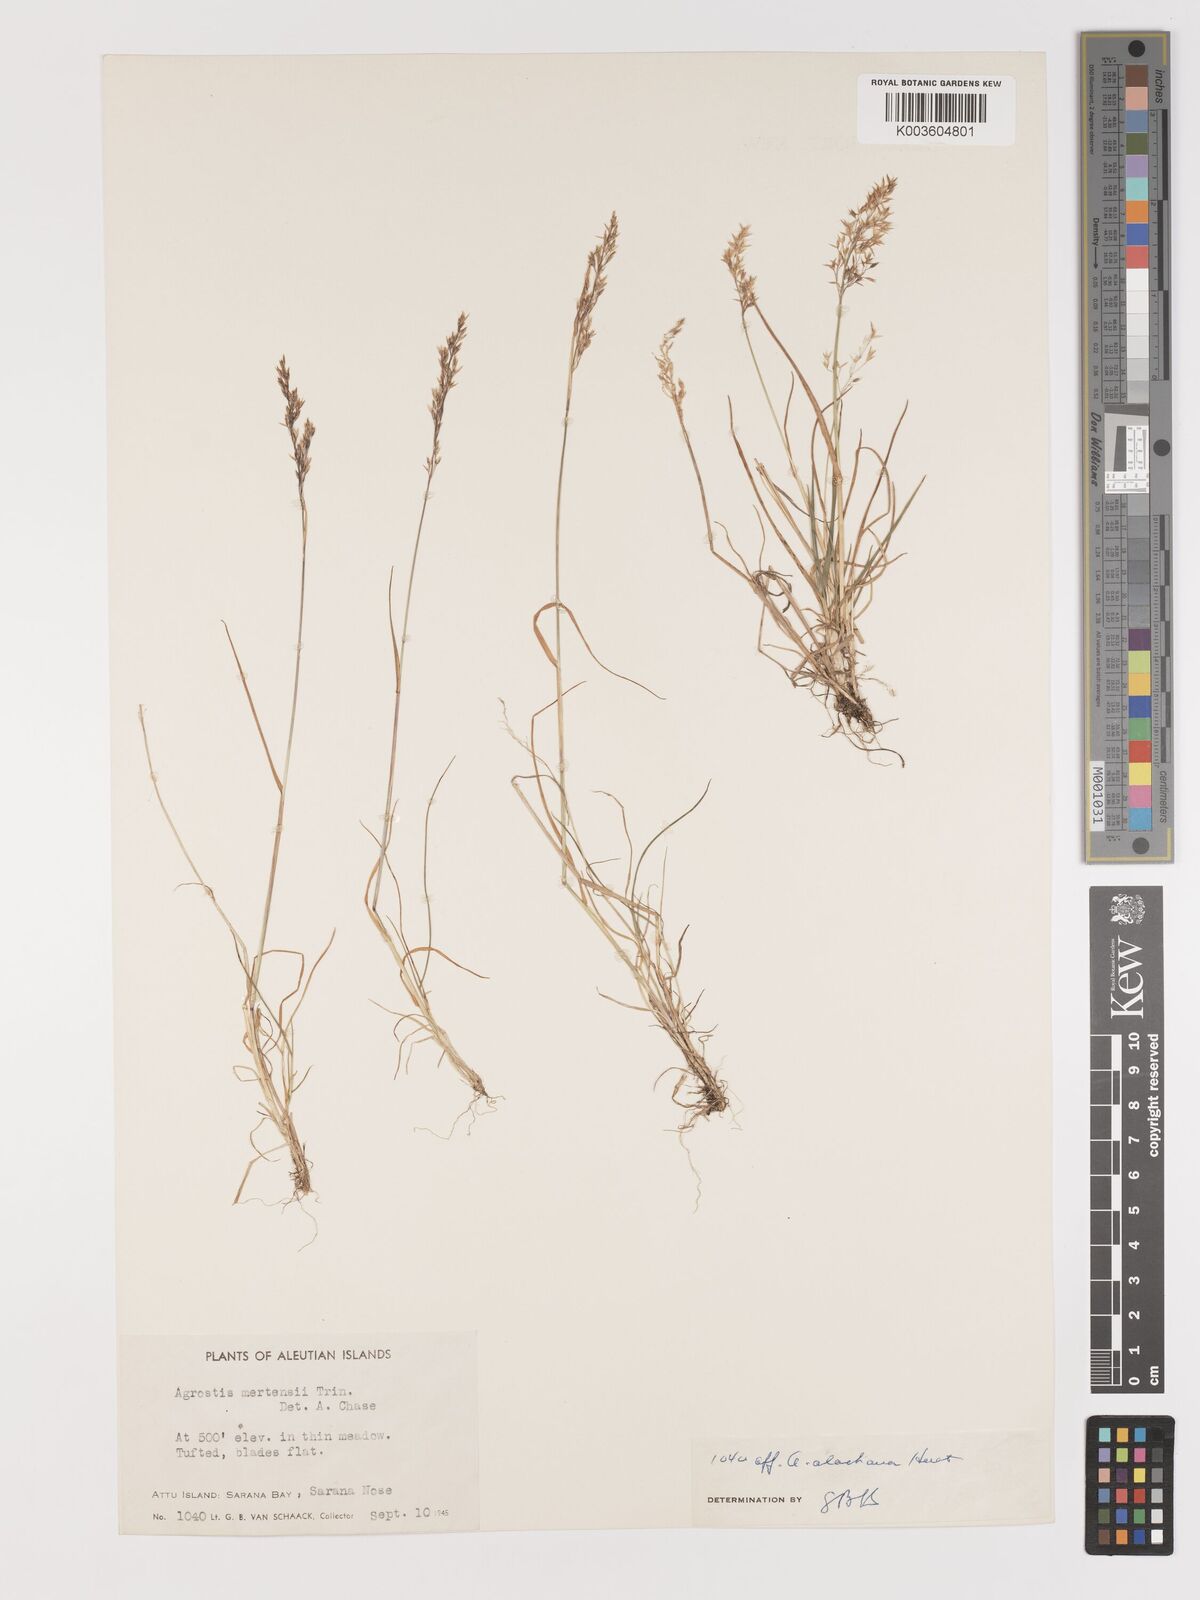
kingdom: Plantae
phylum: Tracheophyta
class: Liliopsida
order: Poales
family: Poaceae
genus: Agrostis
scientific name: Agrostis
